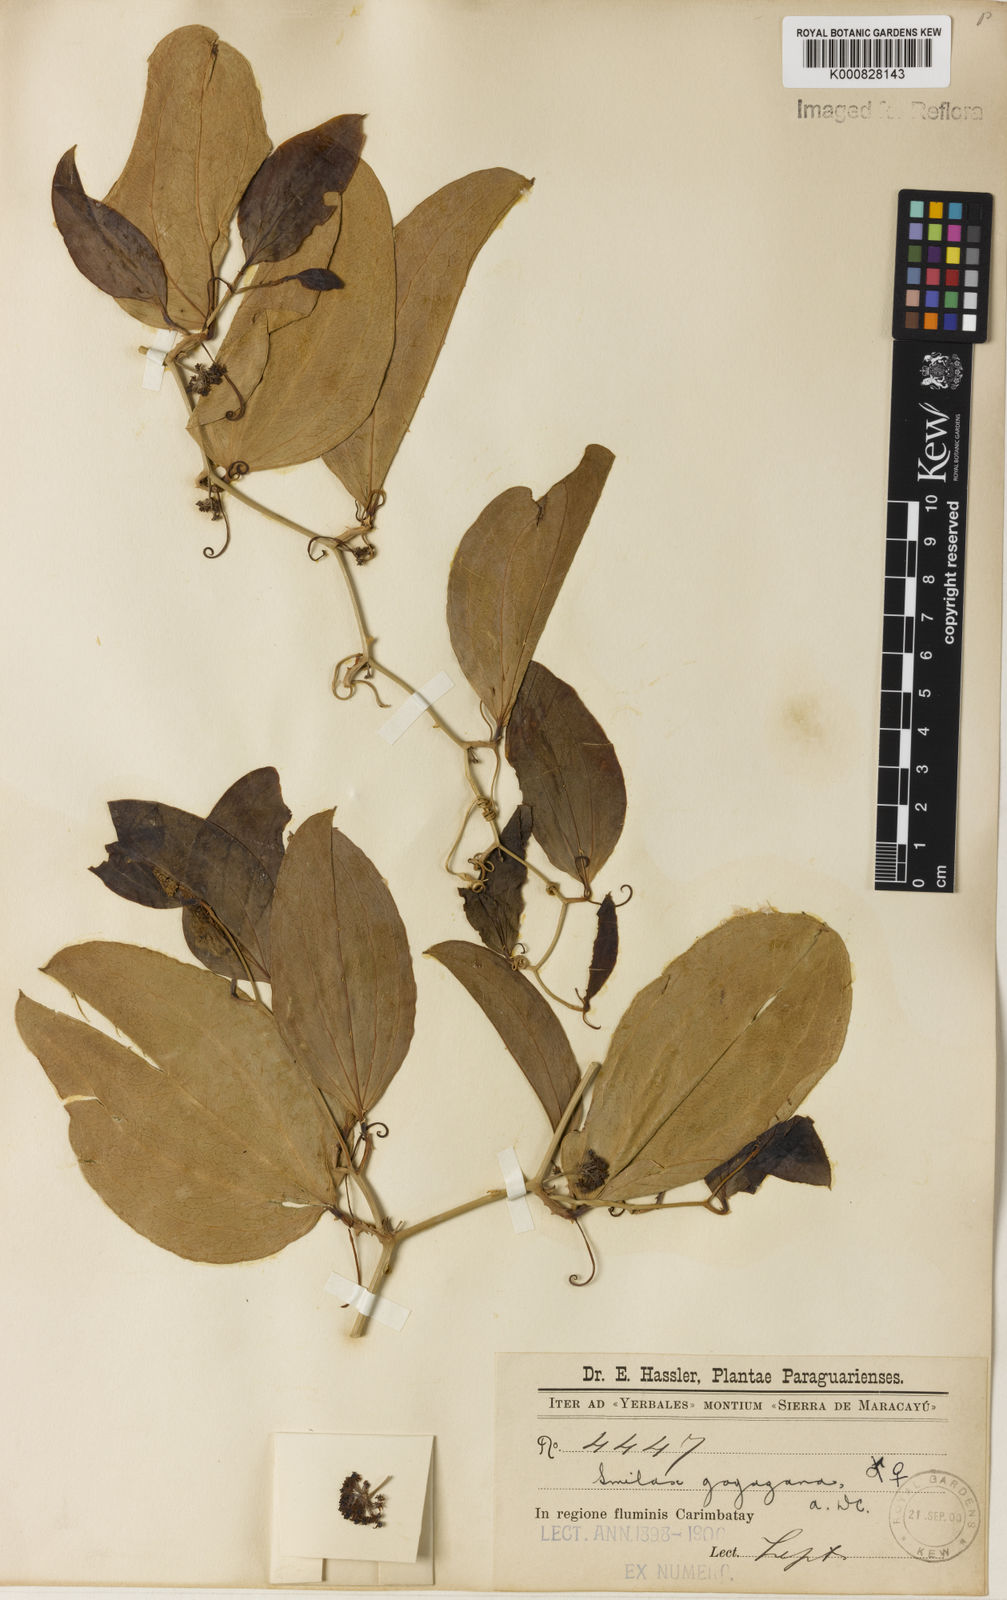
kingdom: Plantae
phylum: Tracheophyta
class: Liliopsida
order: Liliales
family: Smilacaceae
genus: Smilax
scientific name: Smilax goyazana
